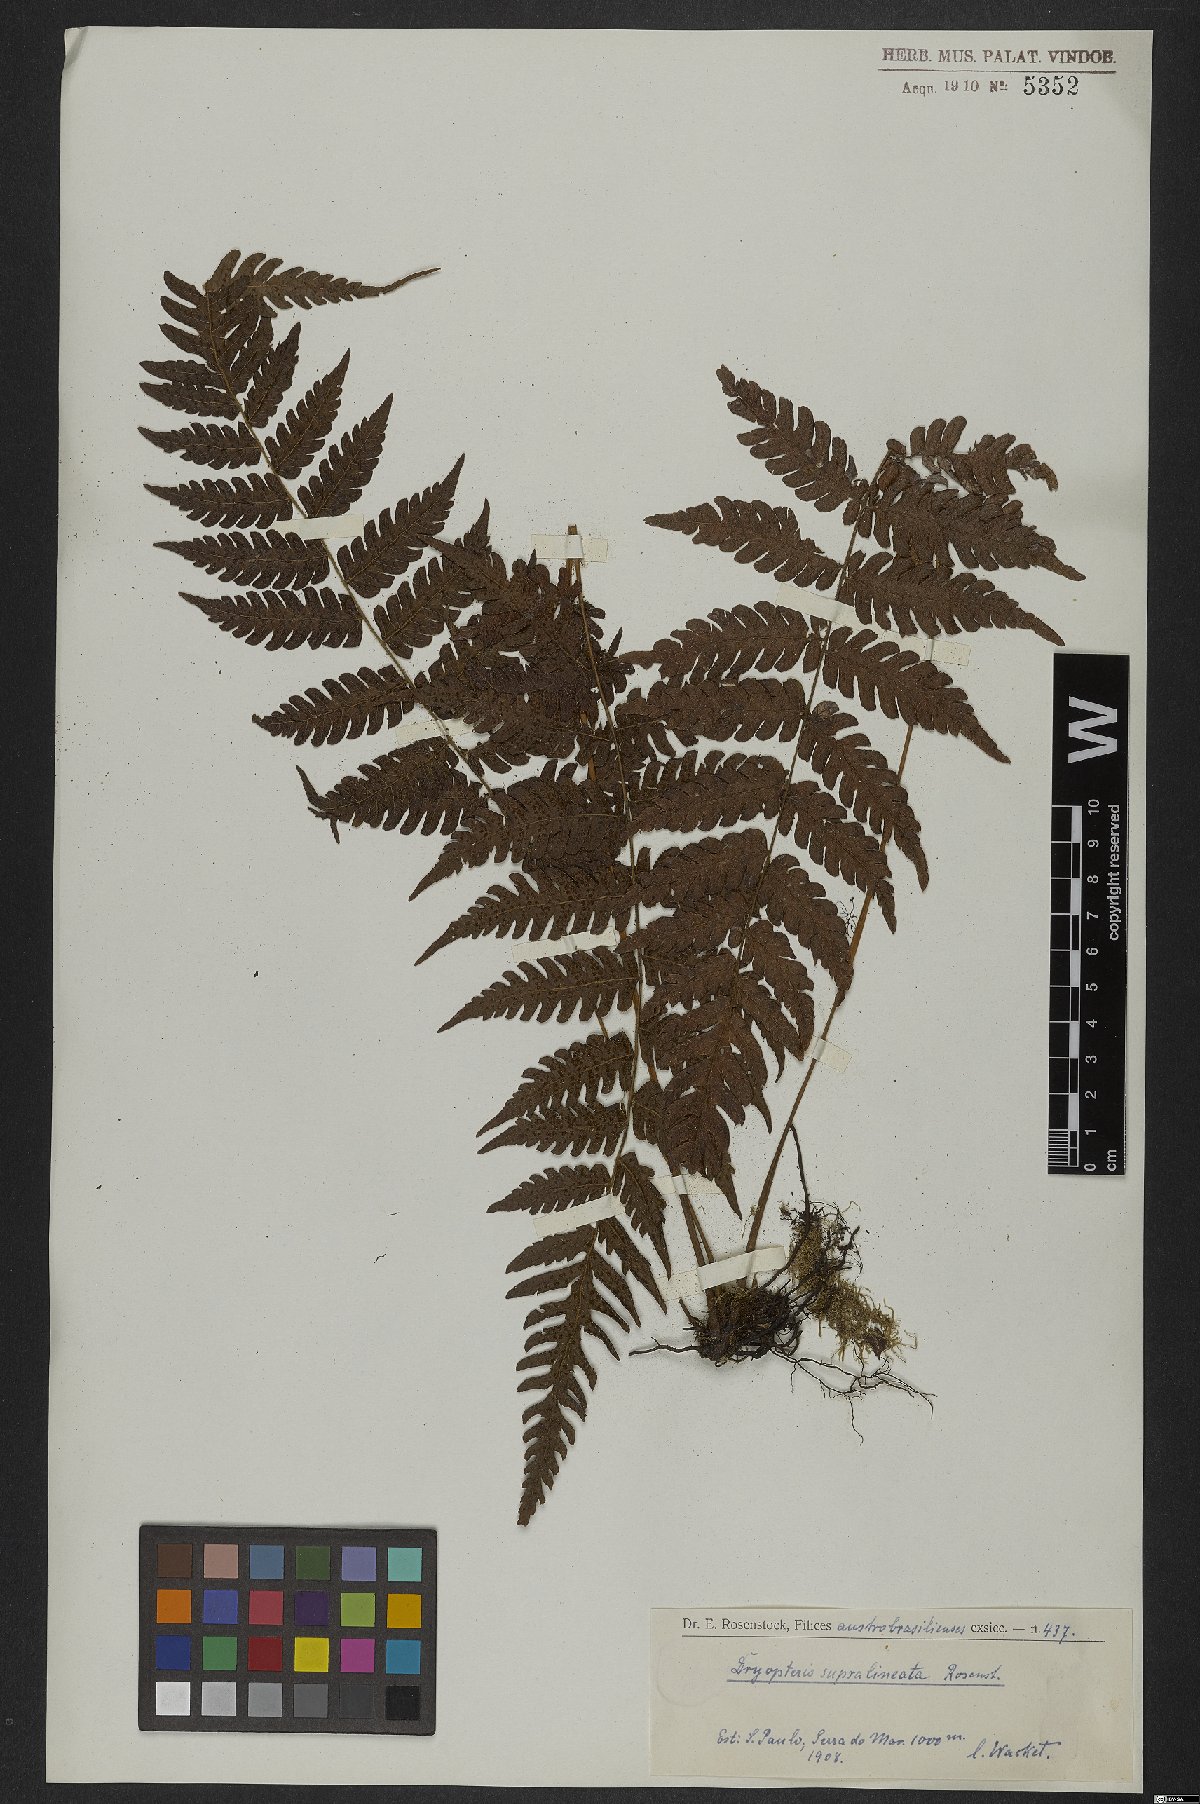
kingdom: Plantae
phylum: Tracheophyta
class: Polypodiopsida
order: Polypodiales
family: Thelypteridaceae
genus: Steiropteris
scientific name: Steiropteris gardneriana
